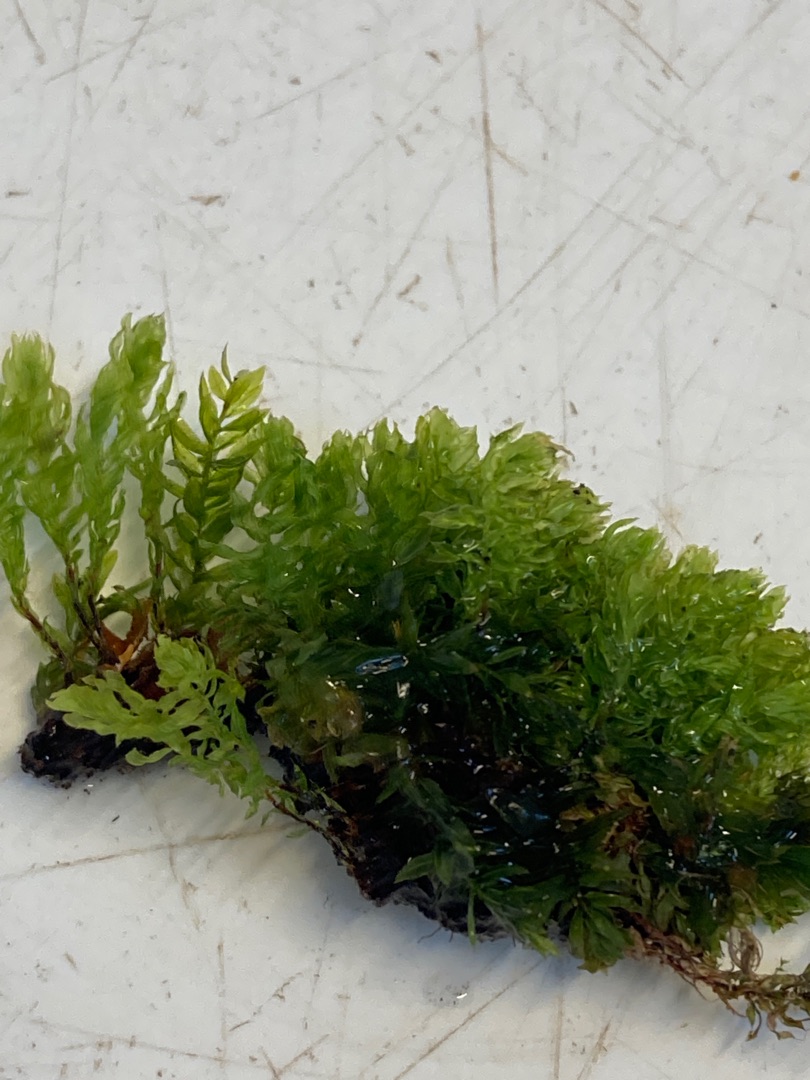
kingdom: Plantae
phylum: Bryophyta
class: Bryopsida
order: Bryales
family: Mniaceae
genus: Mnium
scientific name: Mnium hornum
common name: Brunfiltet stjernemos
